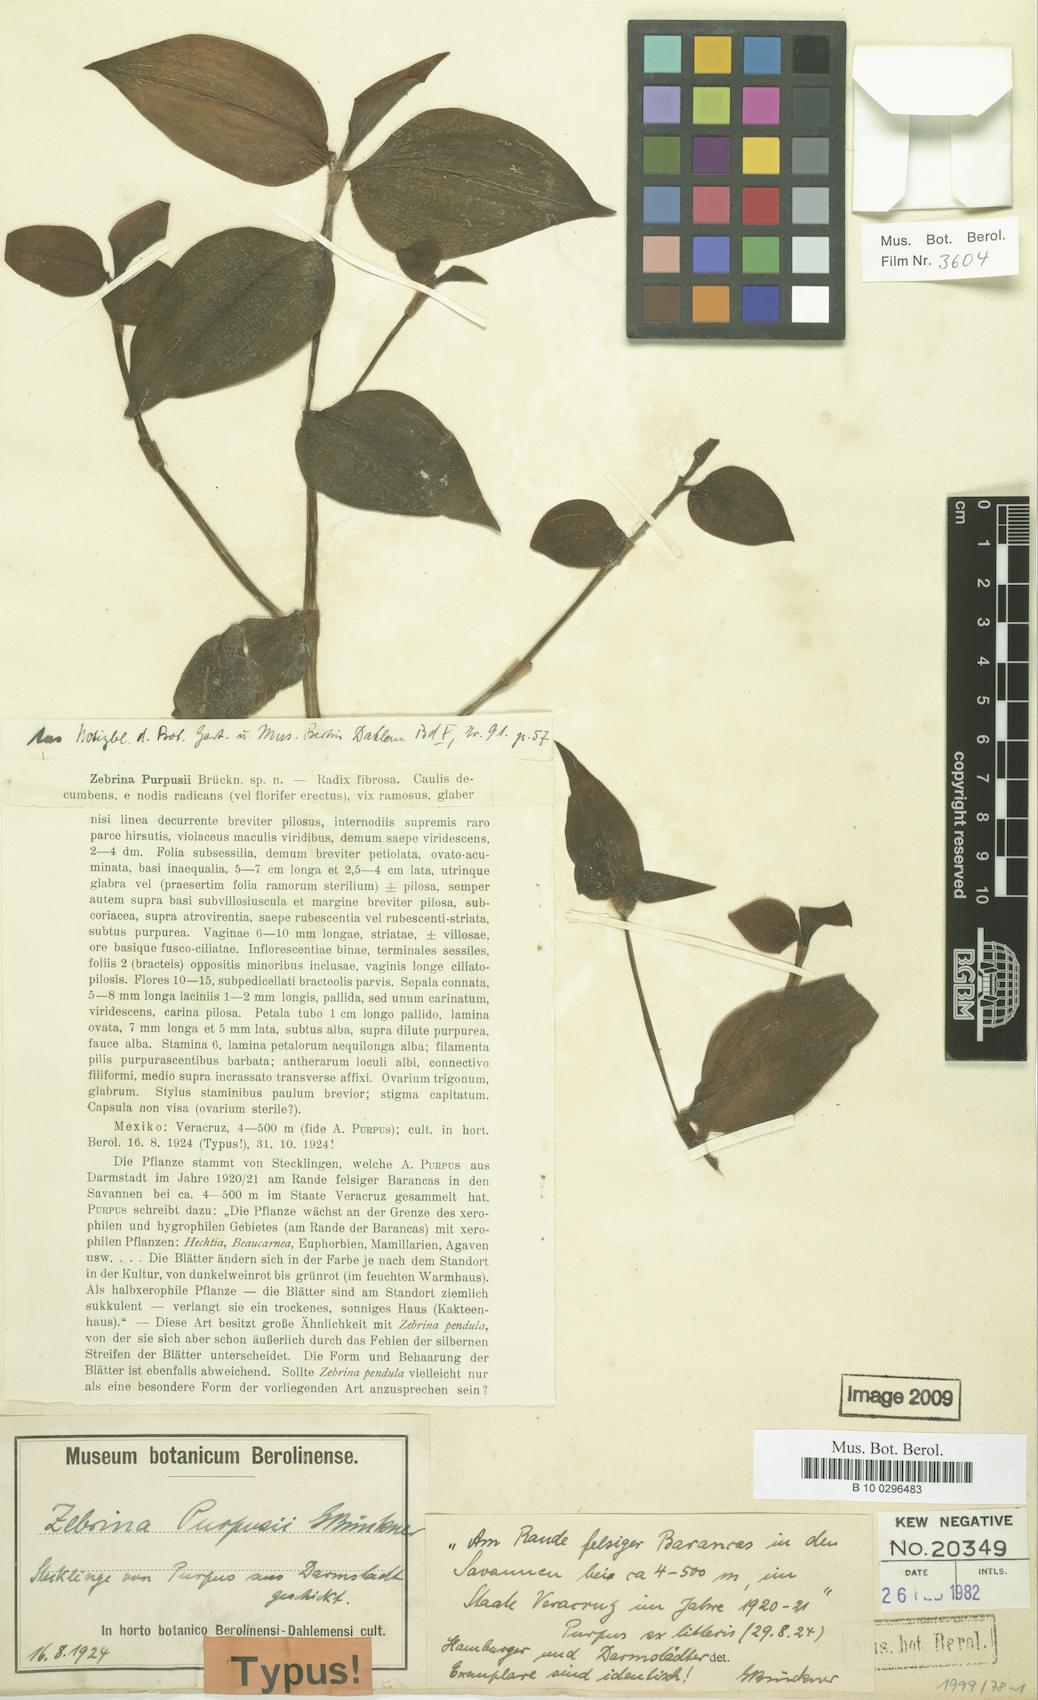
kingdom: Plantae
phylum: Tracheophyta
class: Liliopsida
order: Commelinales
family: Commelinaceae
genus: Tradescantia
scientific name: Tradescantia zebrina
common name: Inchplant
